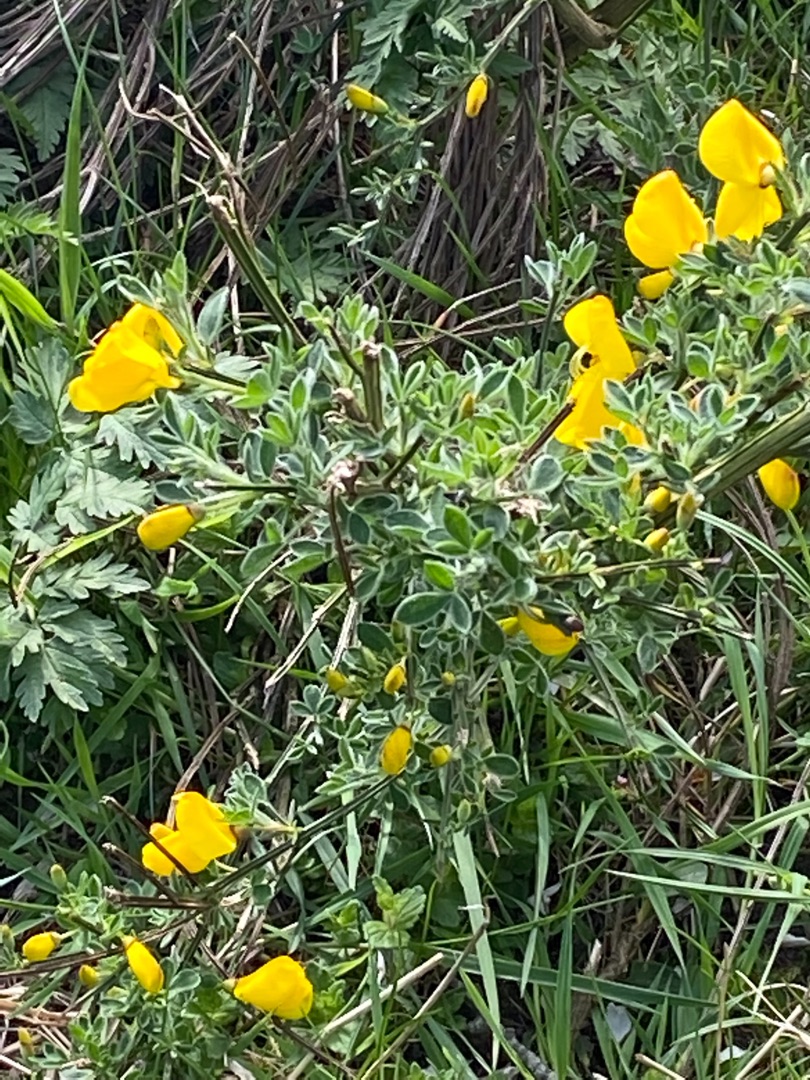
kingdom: Plantae
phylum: Tracheophyta
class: Magnoliopsida
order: Fabales
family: Fabaceae
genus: Cytisus
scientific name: Cytisus scoparius
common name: Almindelig gyvel
